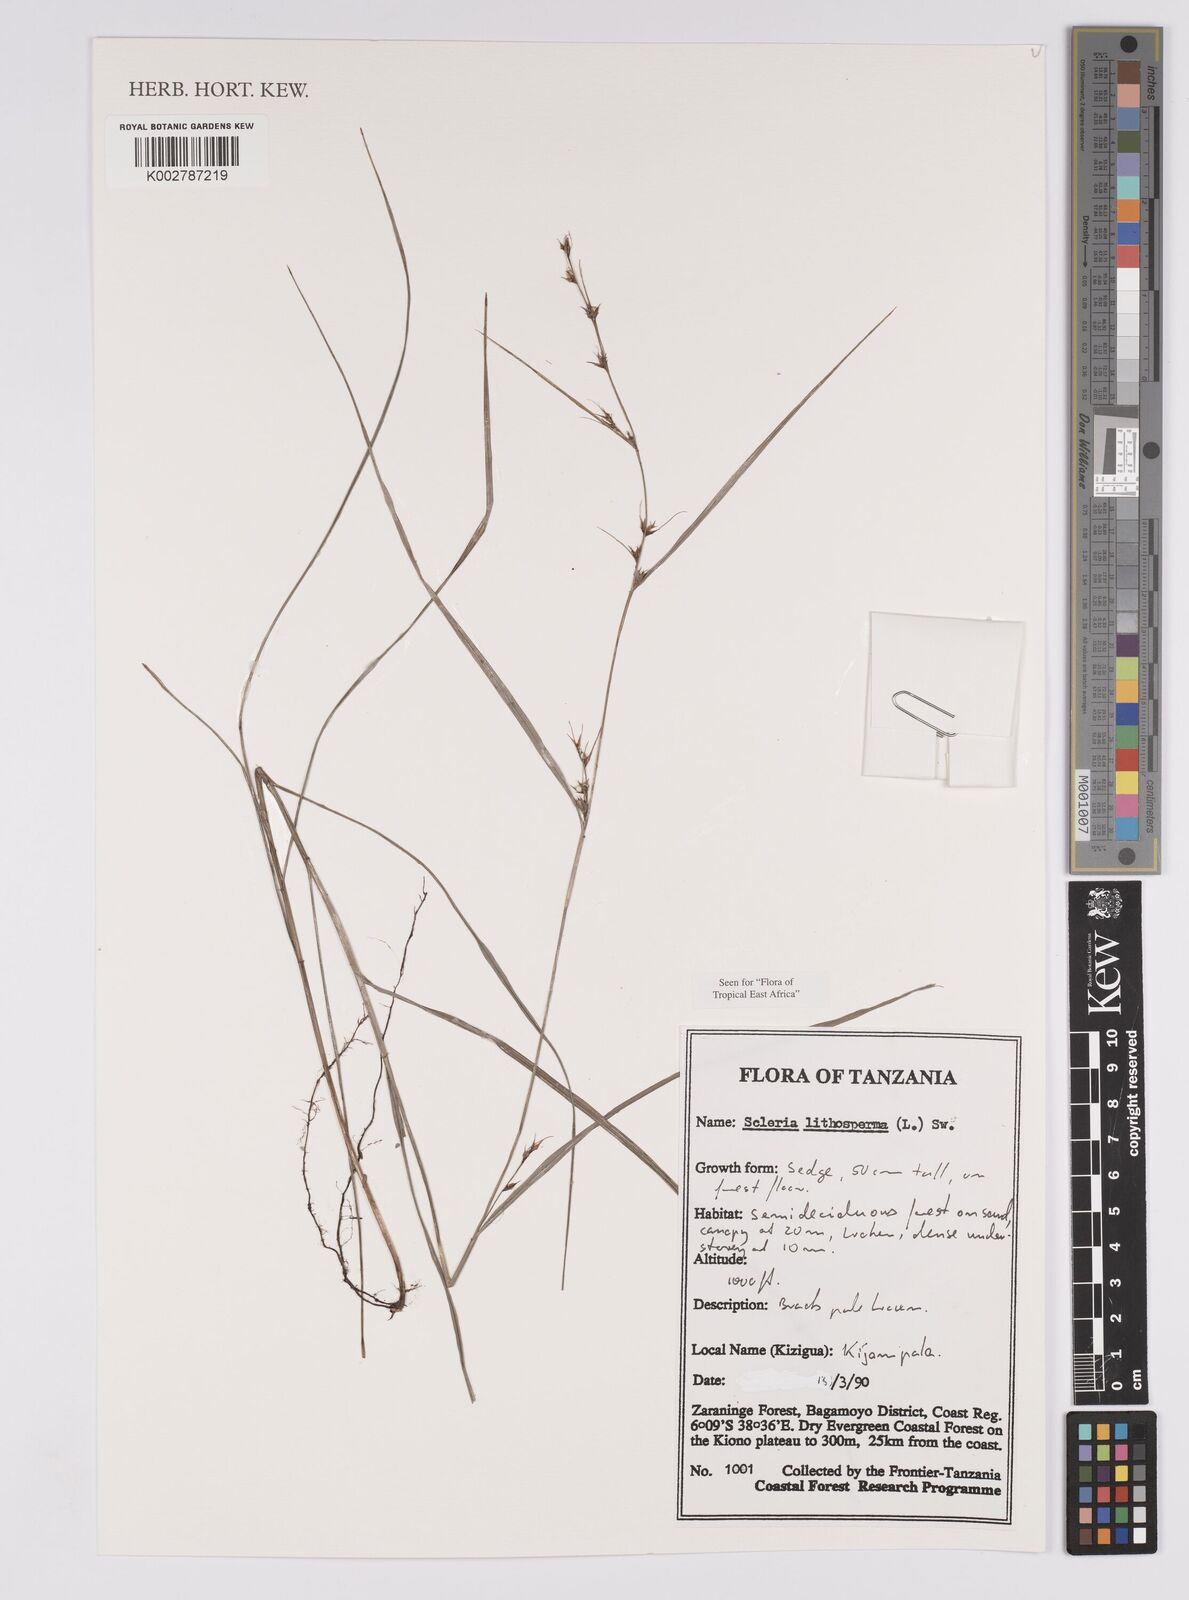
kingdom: Plantae
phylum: Tracheophyta
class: Liliopsida
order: Poales
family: Cyperaceae
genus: Scleria
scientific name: Scleria lithosperma
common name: Florida keys nut-rush
